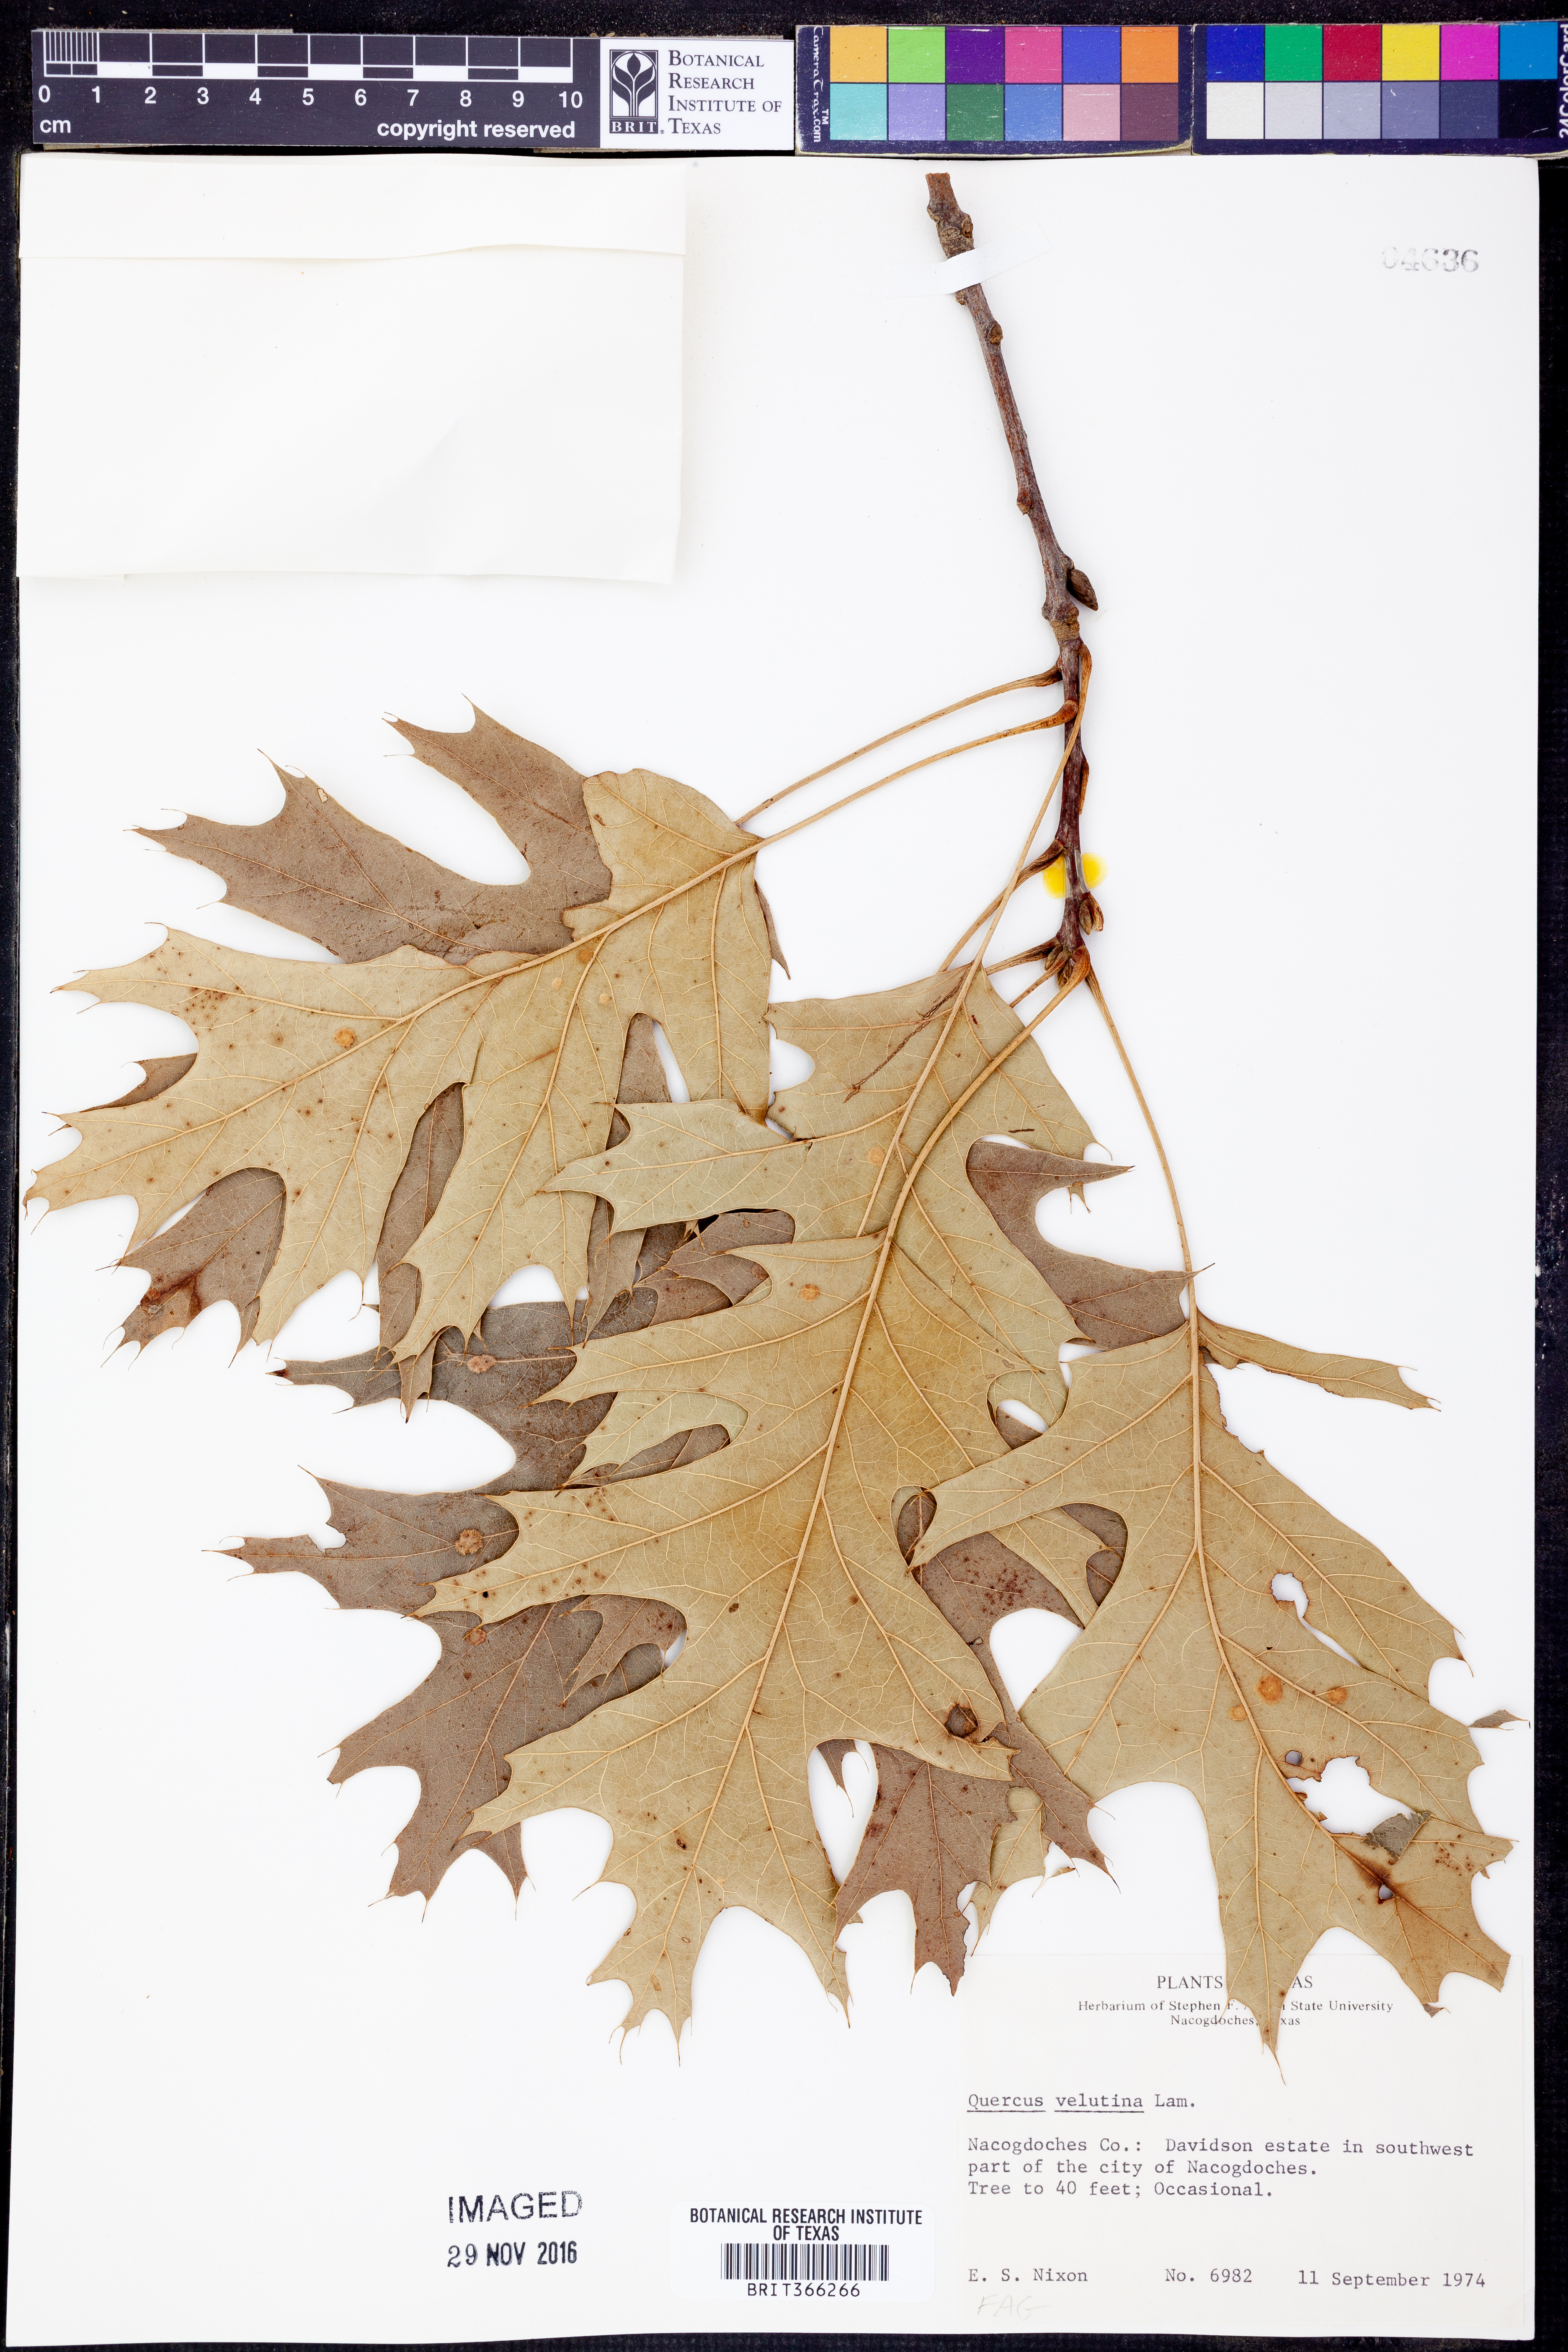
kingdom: Plantae
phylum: Tracheophyta
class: Magnoliopsida
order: Fagales
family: Fagaceae
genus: Quercus
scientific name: Quercus velutina
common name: Black oak
